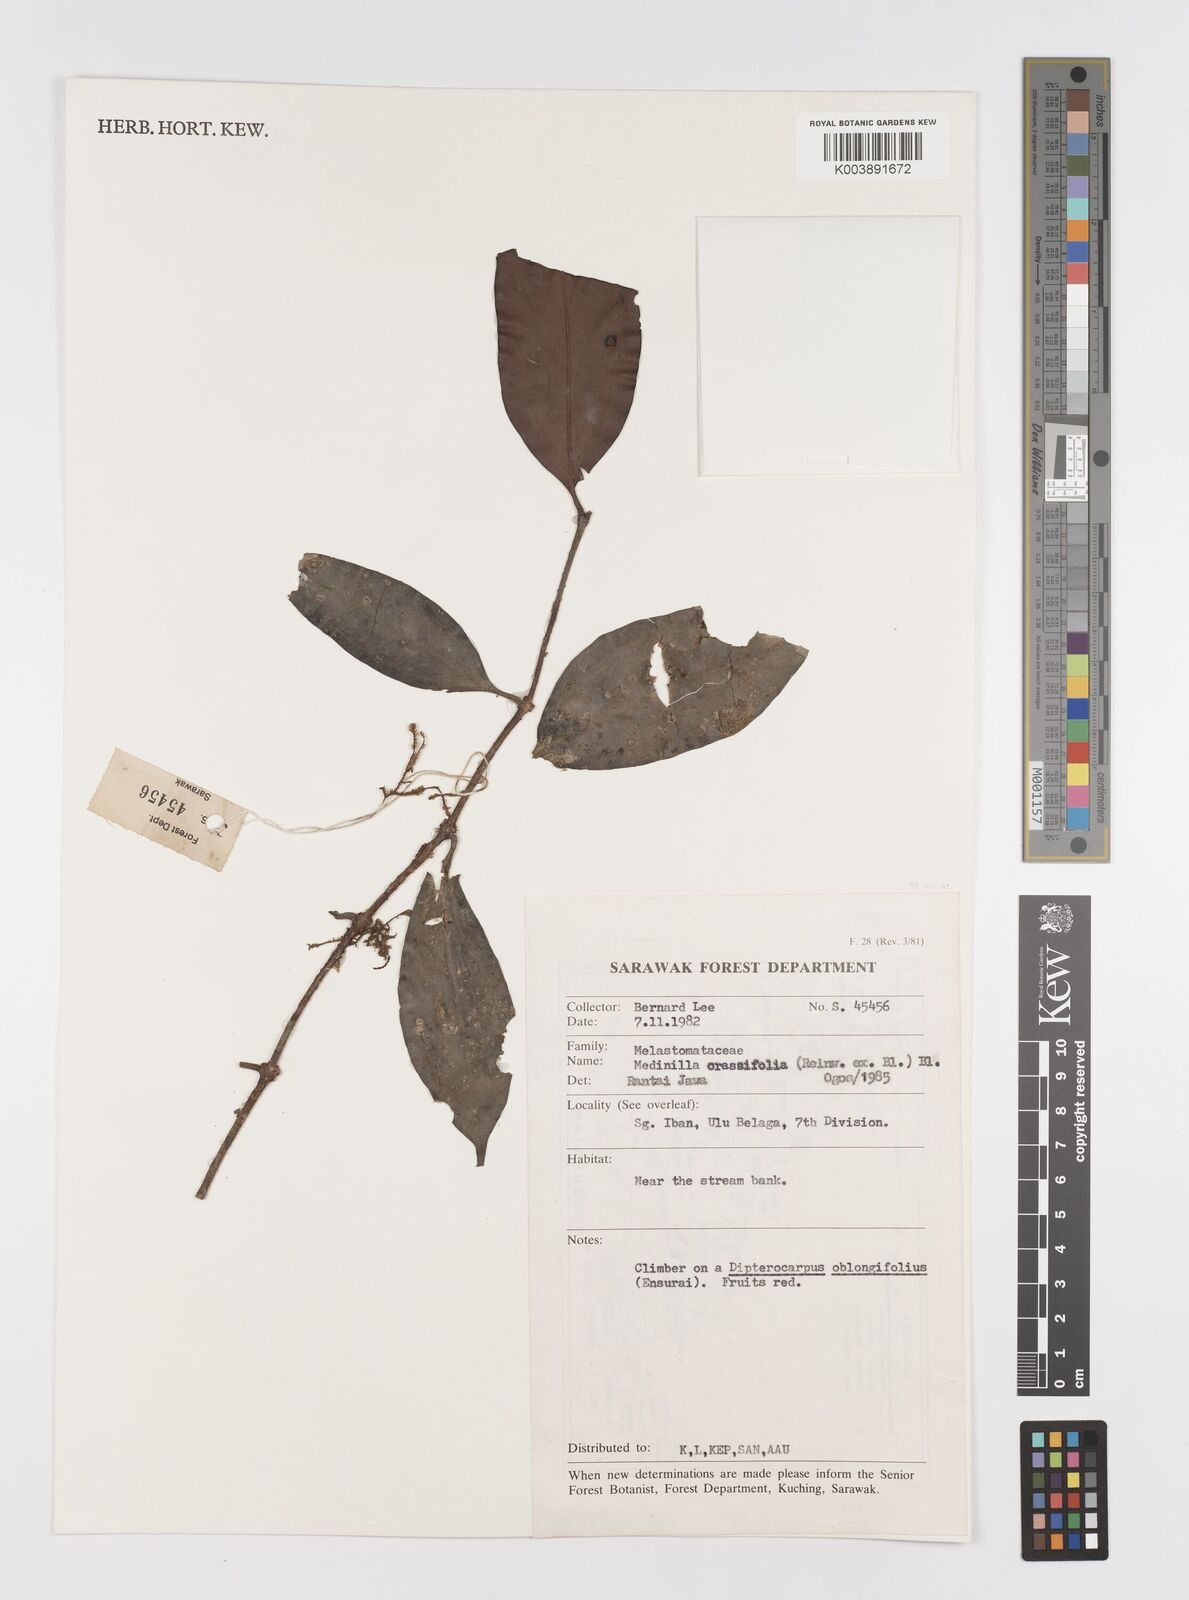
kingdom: Plantae
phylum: Tracheophyta
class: Magnoliopsida
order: Myrtales
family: Melastomataceae
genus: Medinilla
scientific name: Medinilla crassifolia
